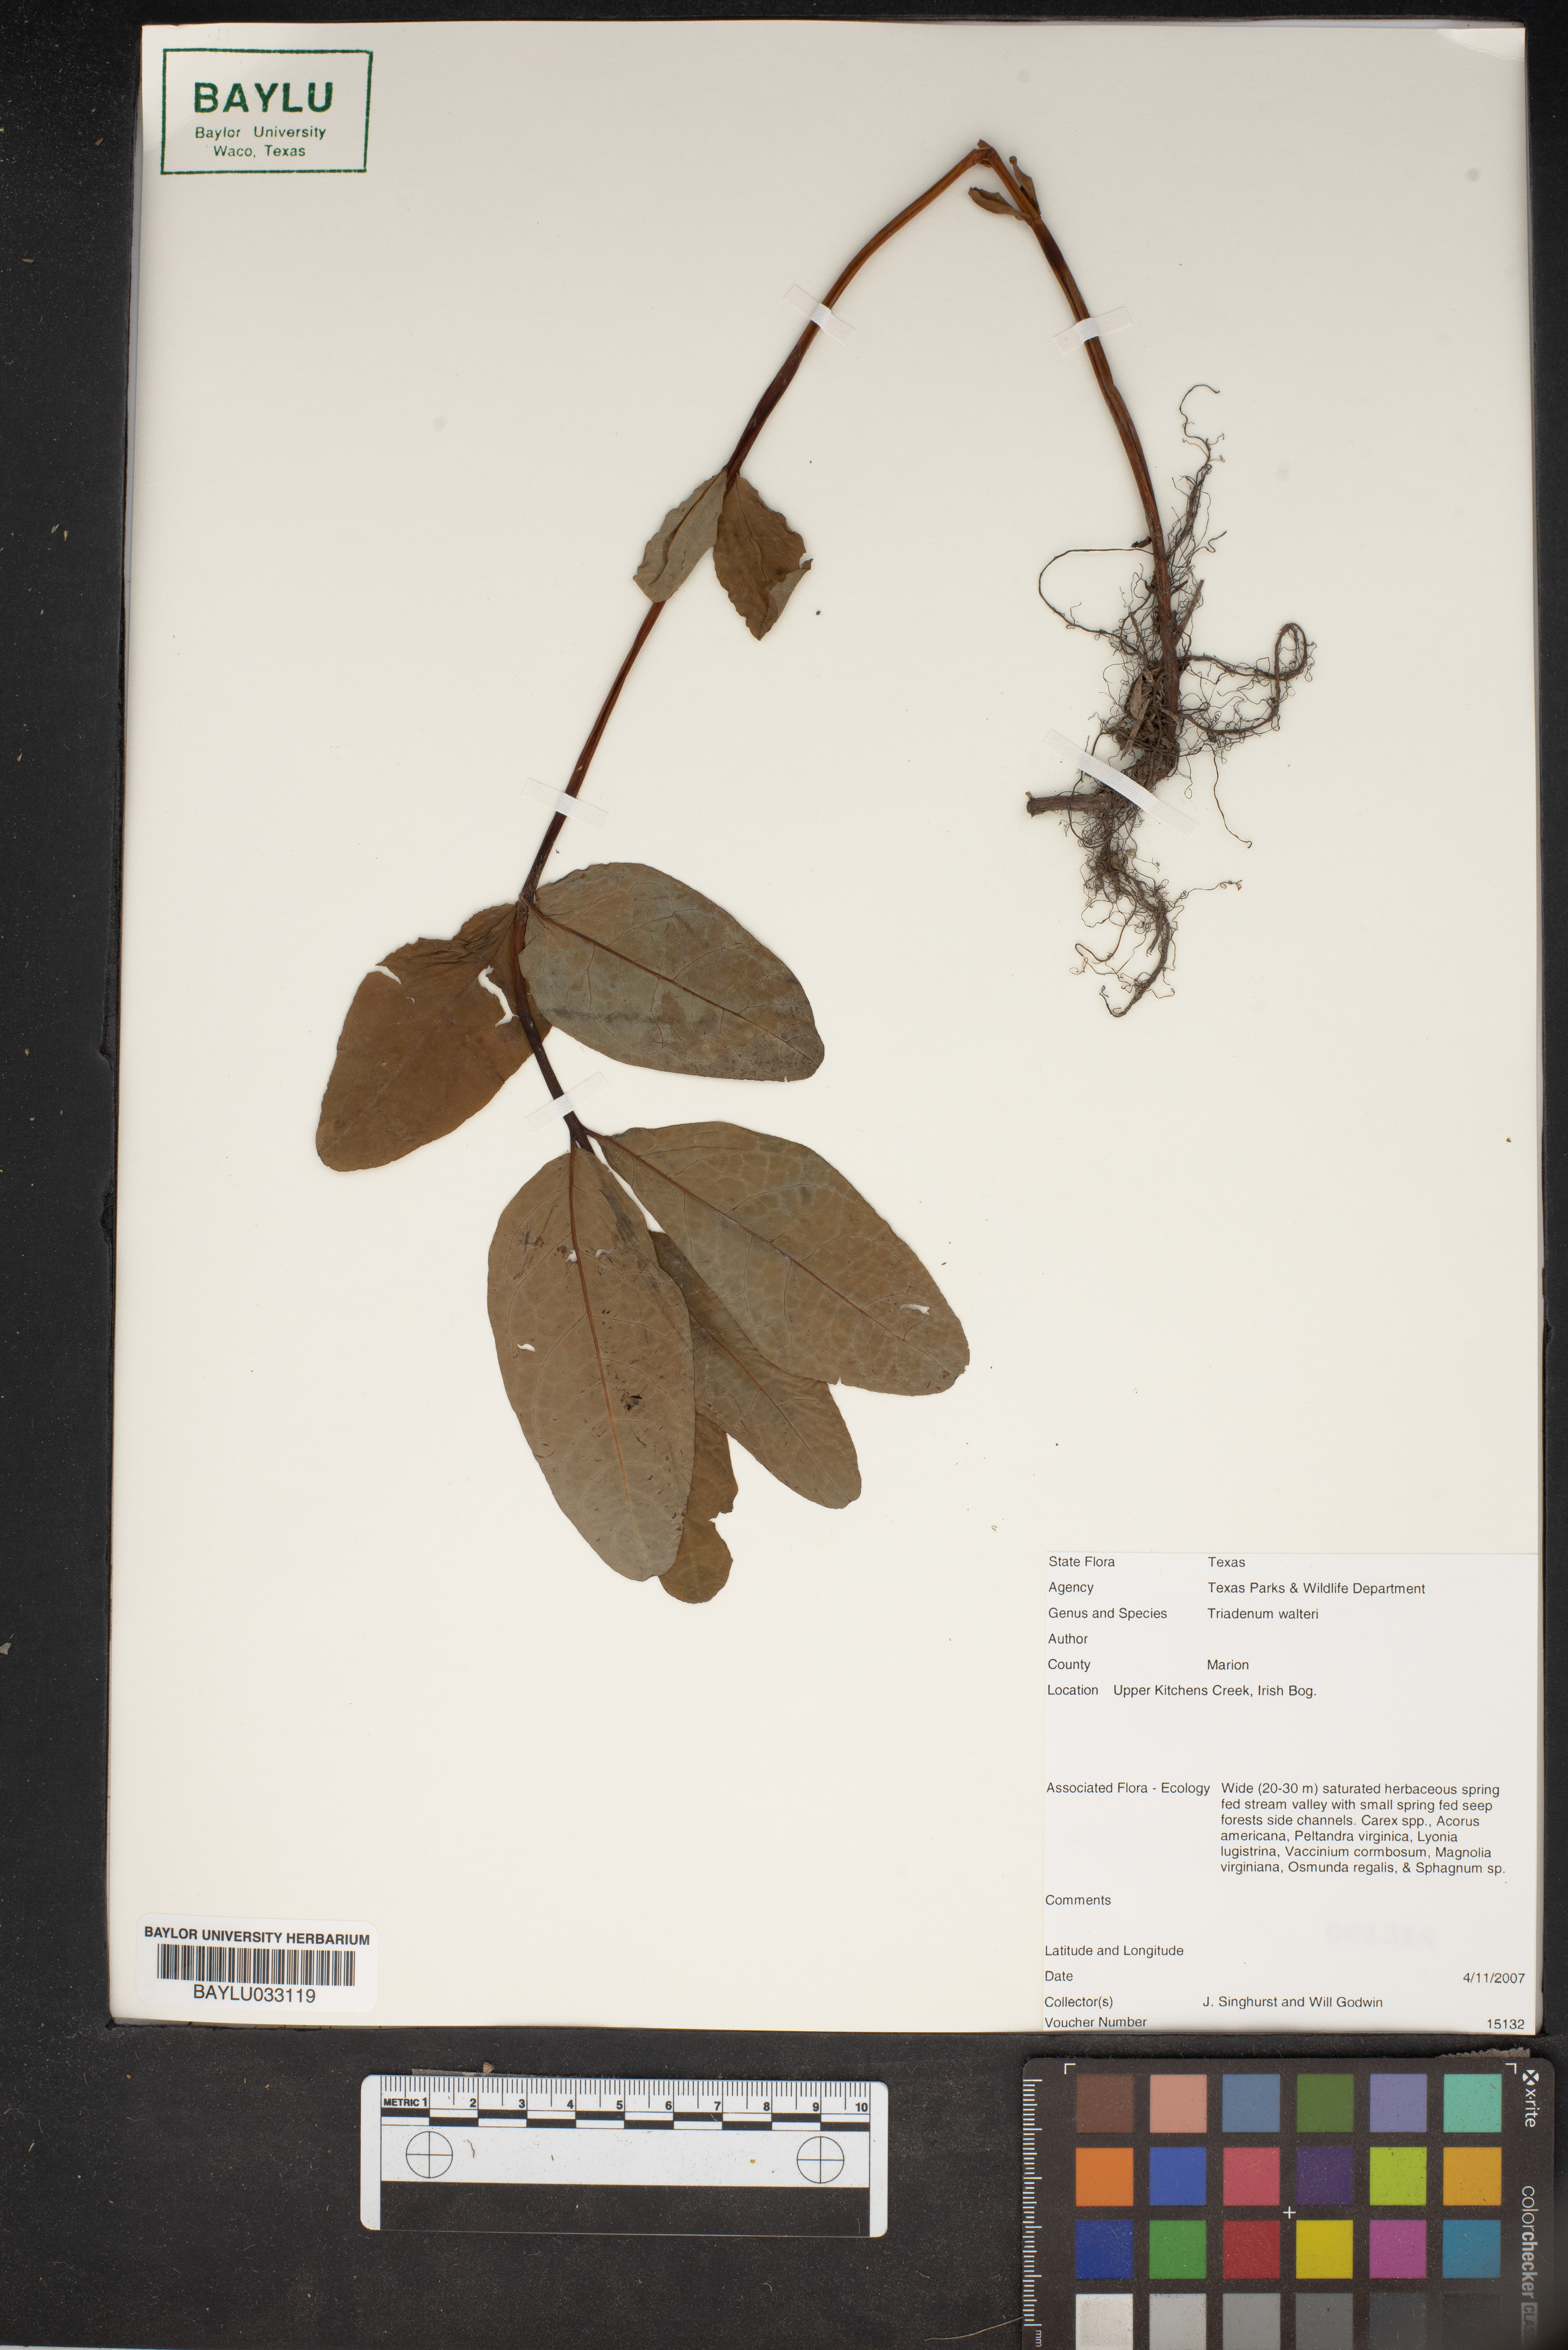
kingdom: Plantae
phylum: Tracheophyta
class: Magnoliopsida
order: Malpighiales
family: Hypericaceae
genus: Triadenum
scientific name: Triadenum walteri
